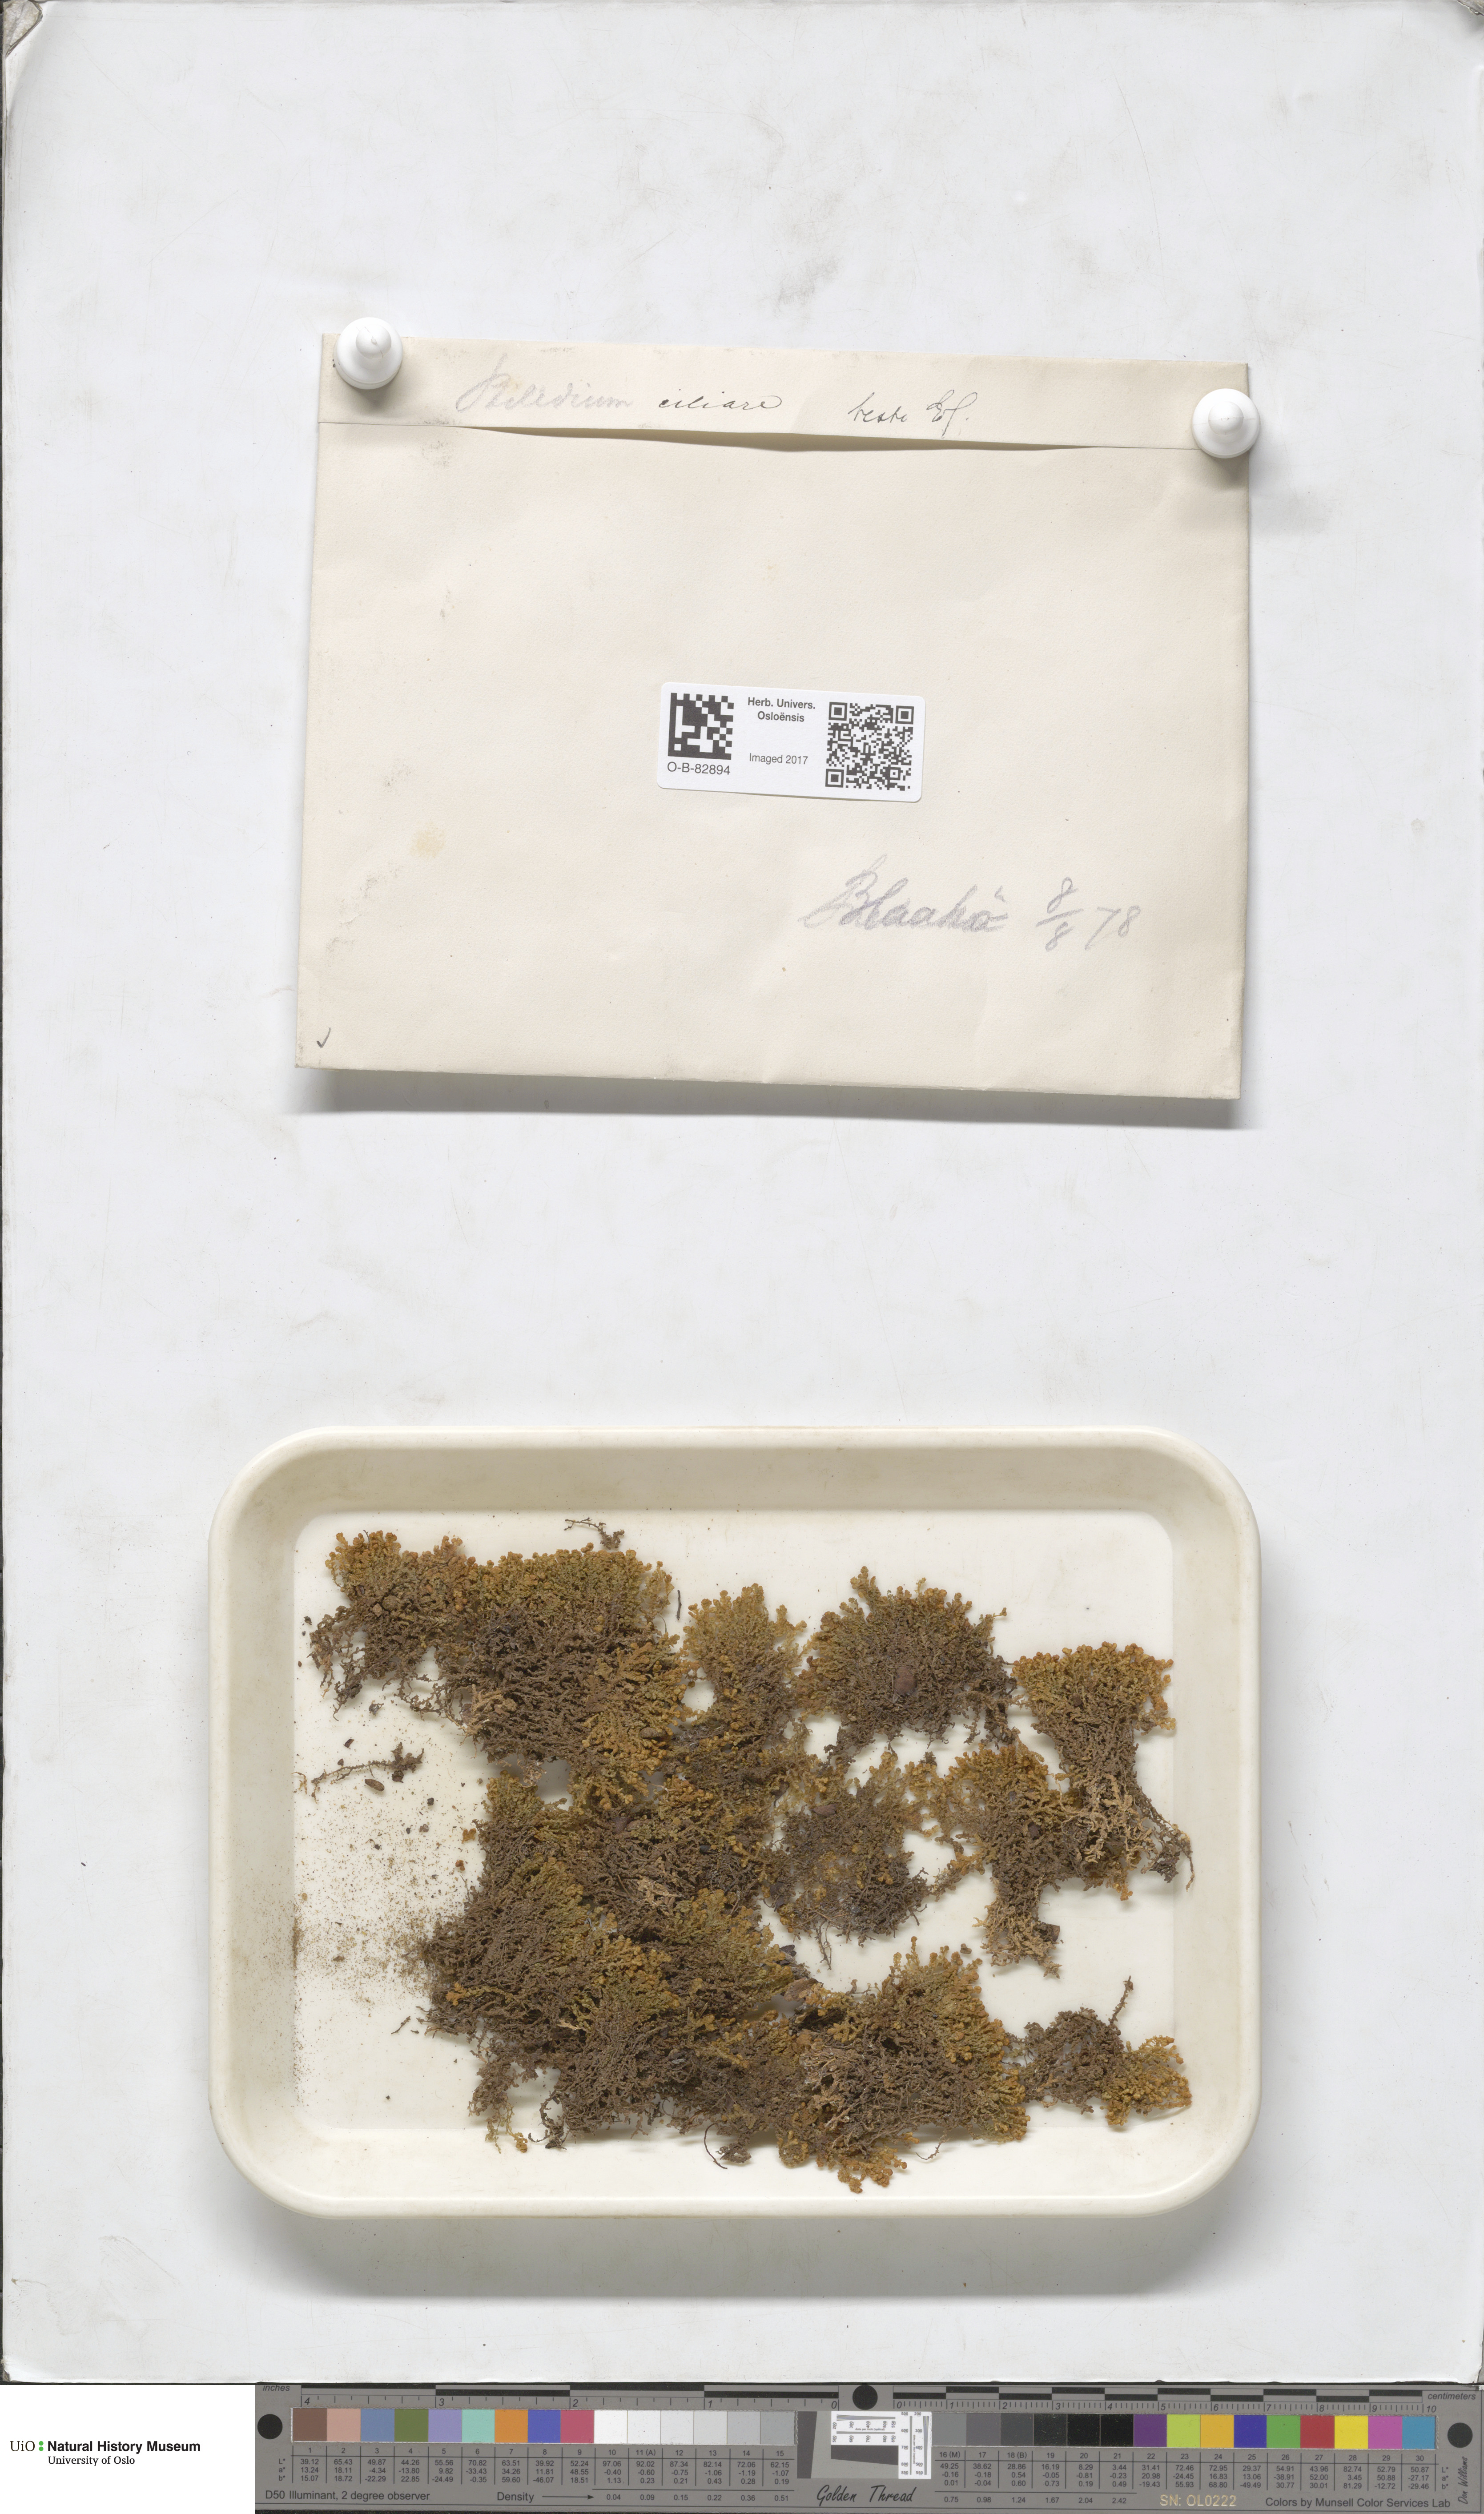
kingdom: Plantae
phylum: Marchantiophyta
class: Jungermanniopsida
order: Ptilidiales
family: Ptilidiaceae
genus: Ptilidium
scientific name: Ptilidium ciliare
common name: Ciliate fringewort
